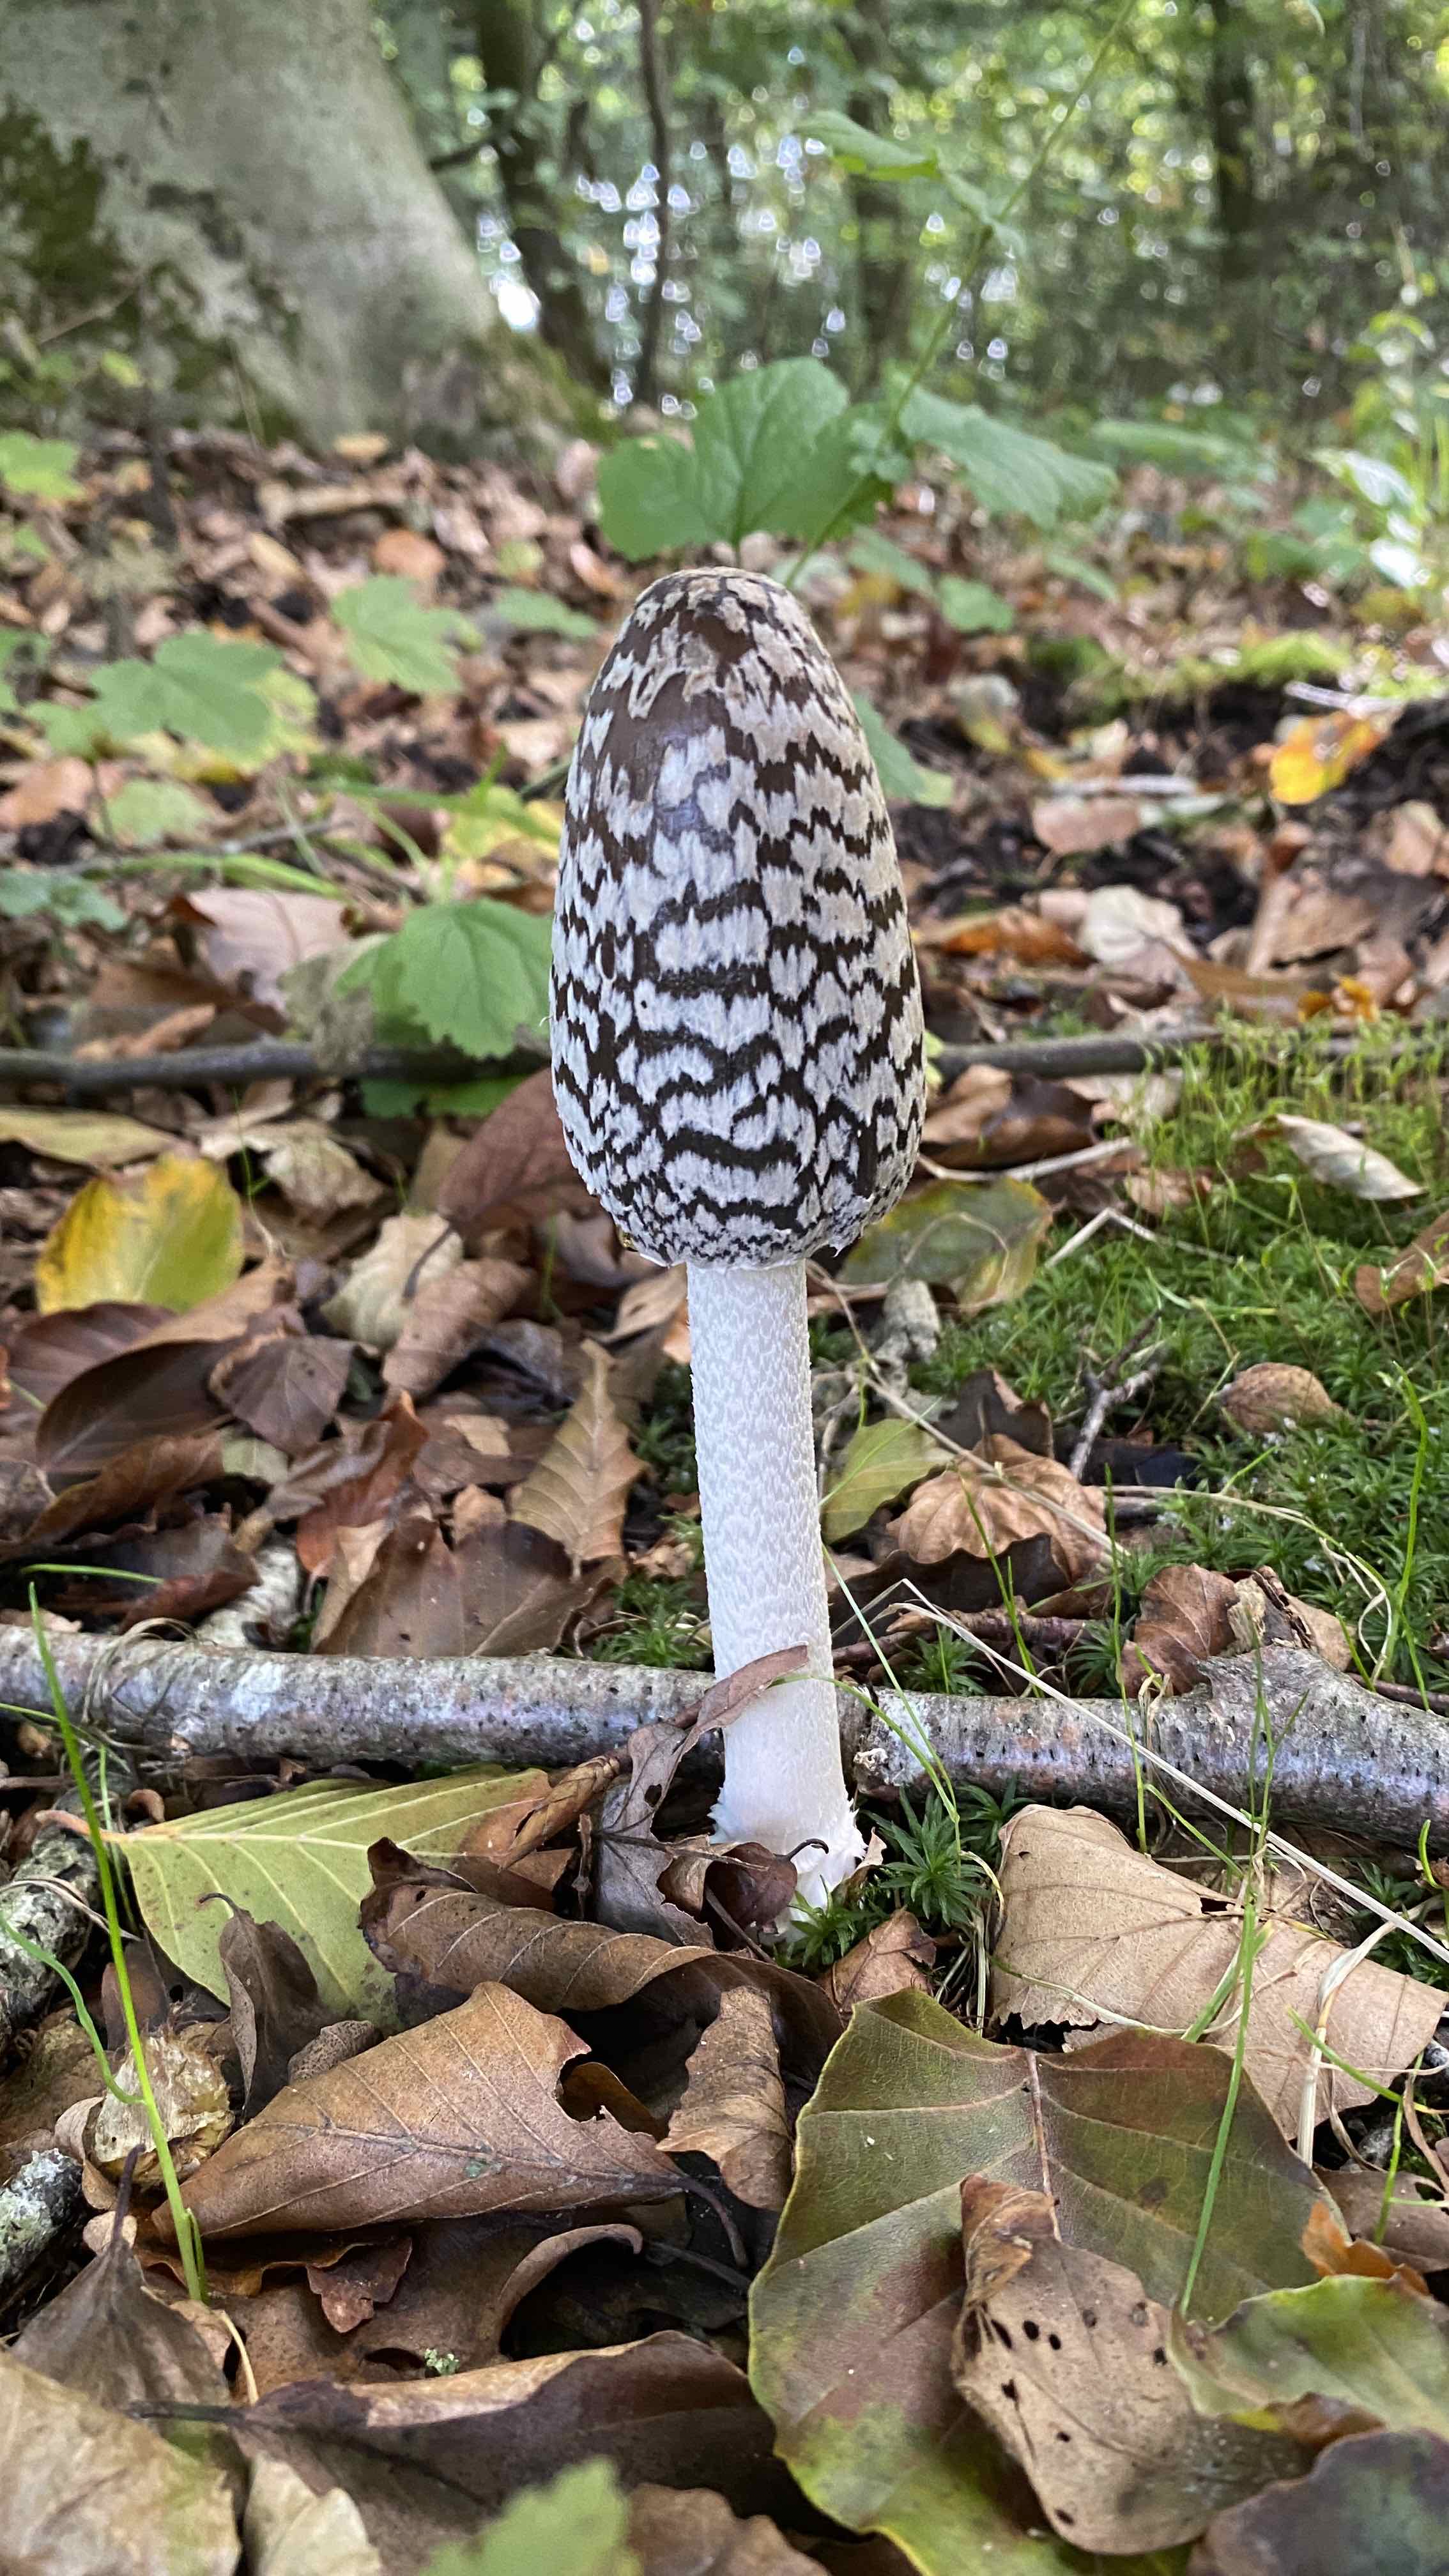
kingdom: Fungi
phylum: Basidiomycota
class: Agaricomycetes
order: Agaricales
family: Psathyrellaceae
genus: Coprinopsis
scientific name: Coprinopsis picacea
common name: skade-blækhat
